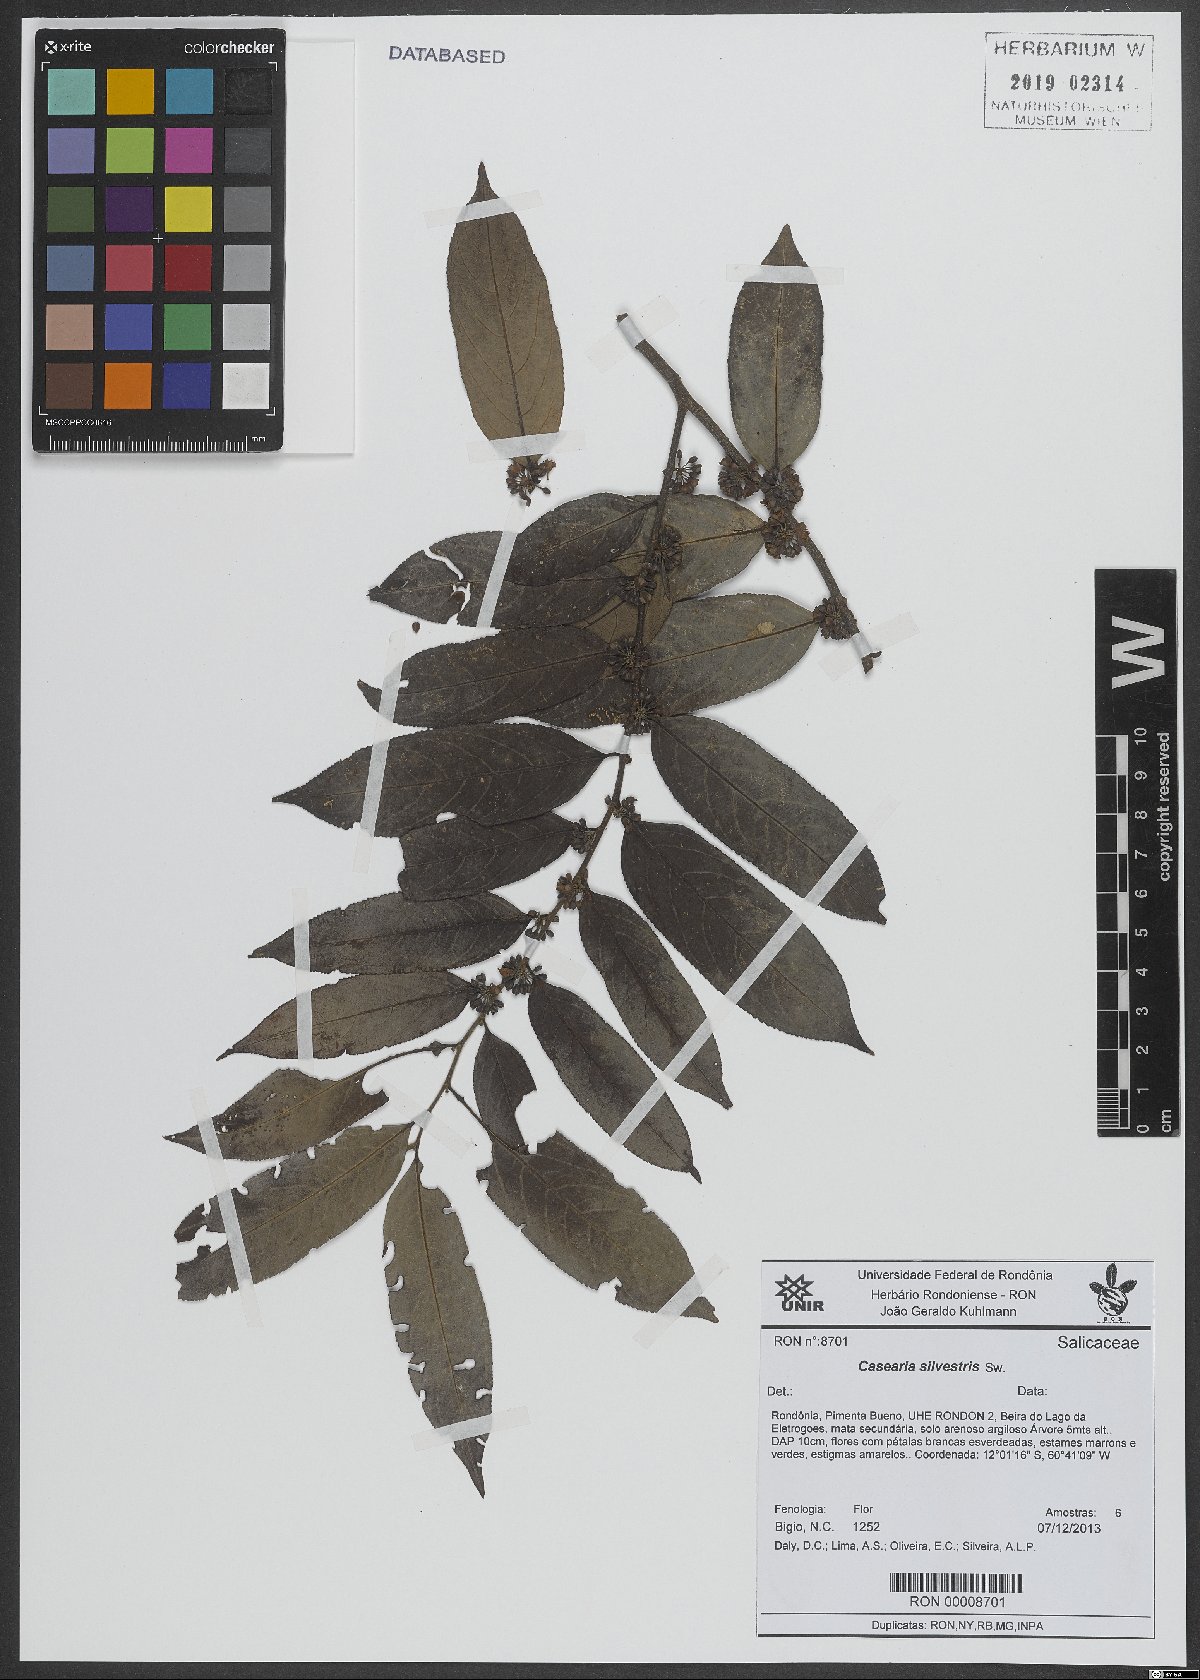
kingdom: Plantae
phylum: Tracheophyta
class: Magnoliopsida
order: Malpighiales
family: Salicaceae
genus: Casearia
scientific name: Casearia sylvestris
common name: Wild sage
